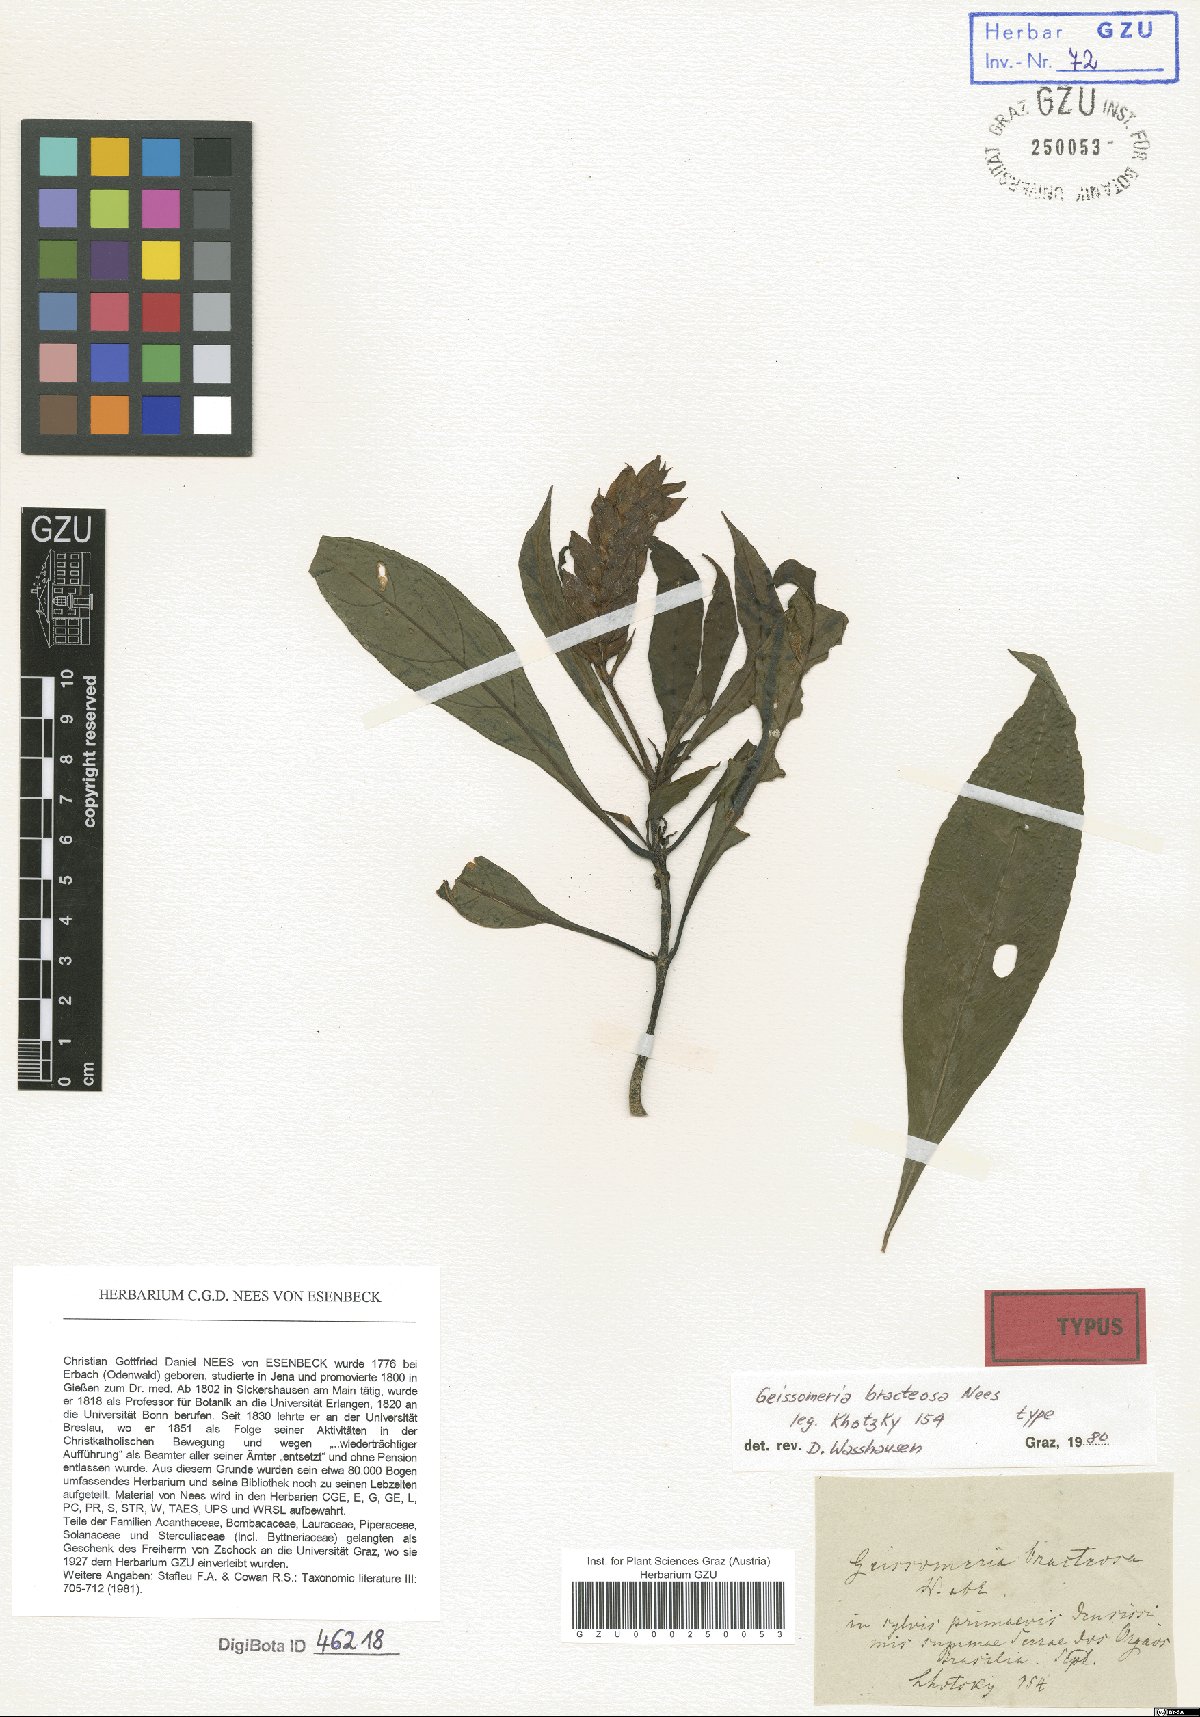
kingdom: Plantae
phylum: Tracheophyta
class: Magnoliopsida
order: Lamiales
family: Acanthaceae
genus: Aphelandra
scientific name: Aphelandra Geissomeria bracteosa
